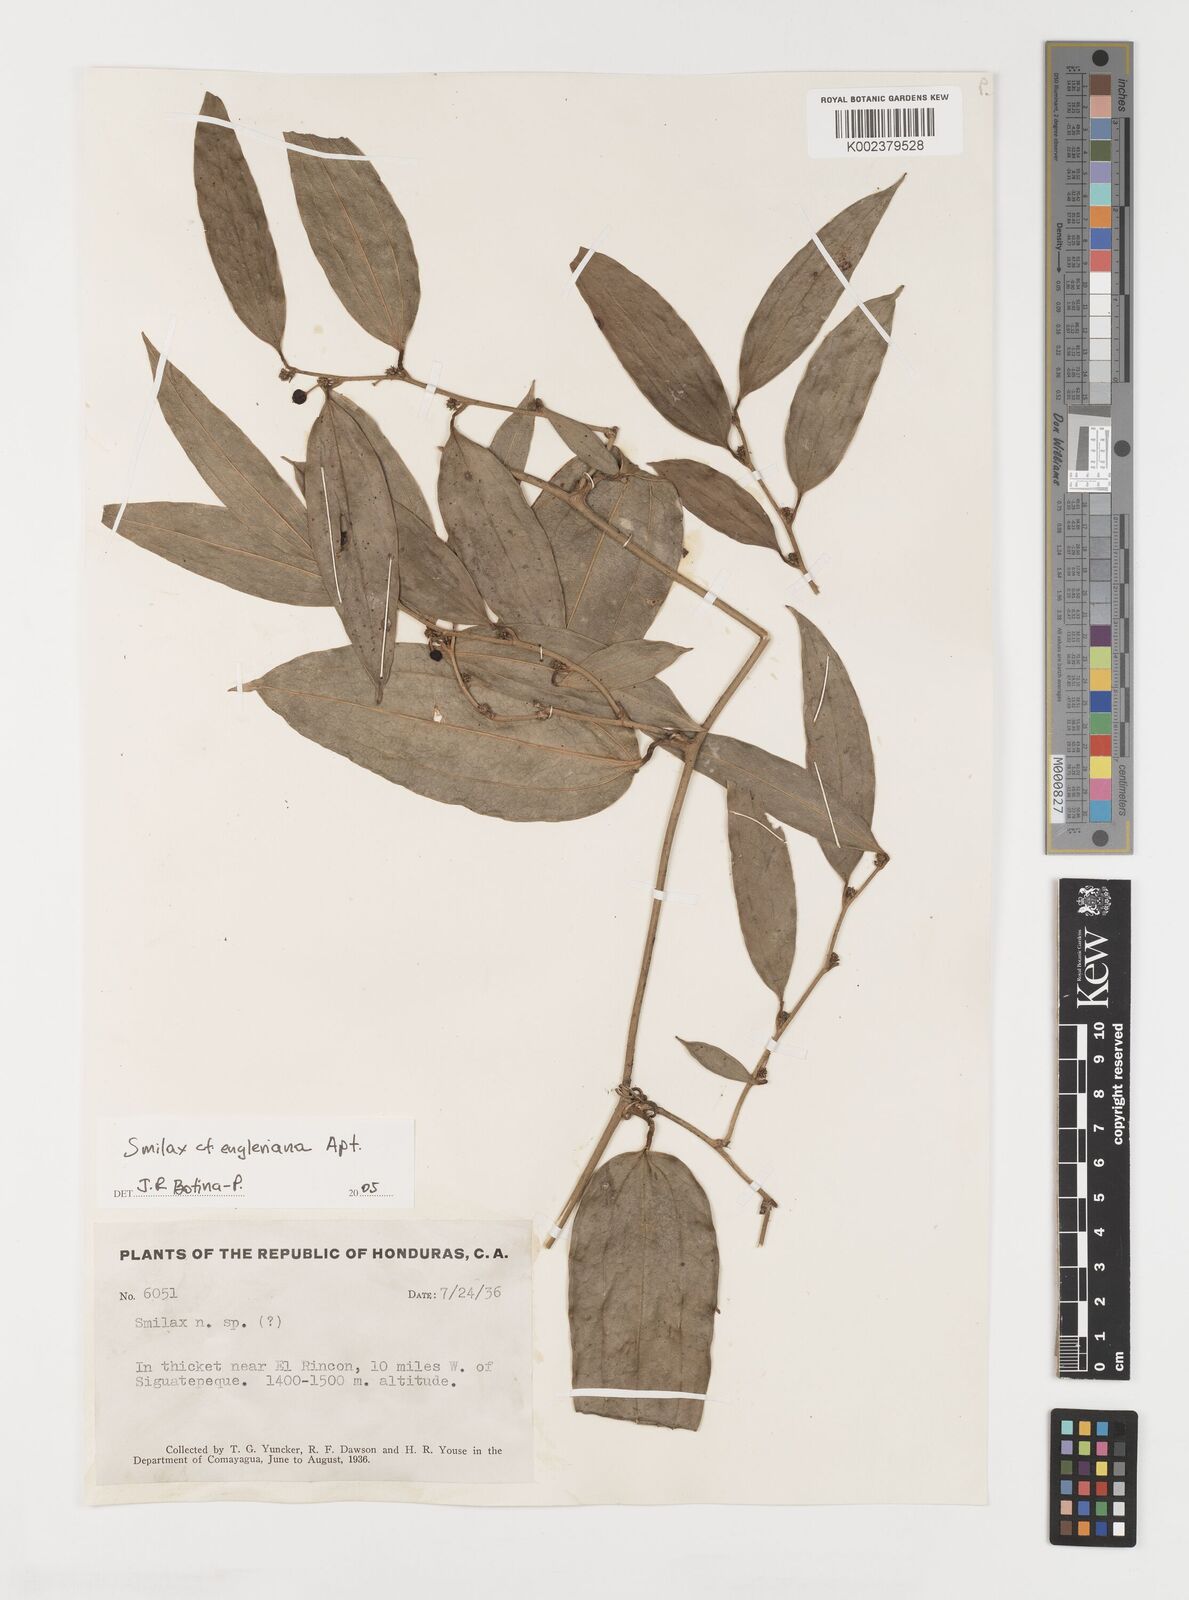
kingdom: Plantae
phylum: Tracheophyta
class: Liliopsida
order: Liliales
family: Smilacaceae
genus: Smilax
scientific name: Smilax domingensis
